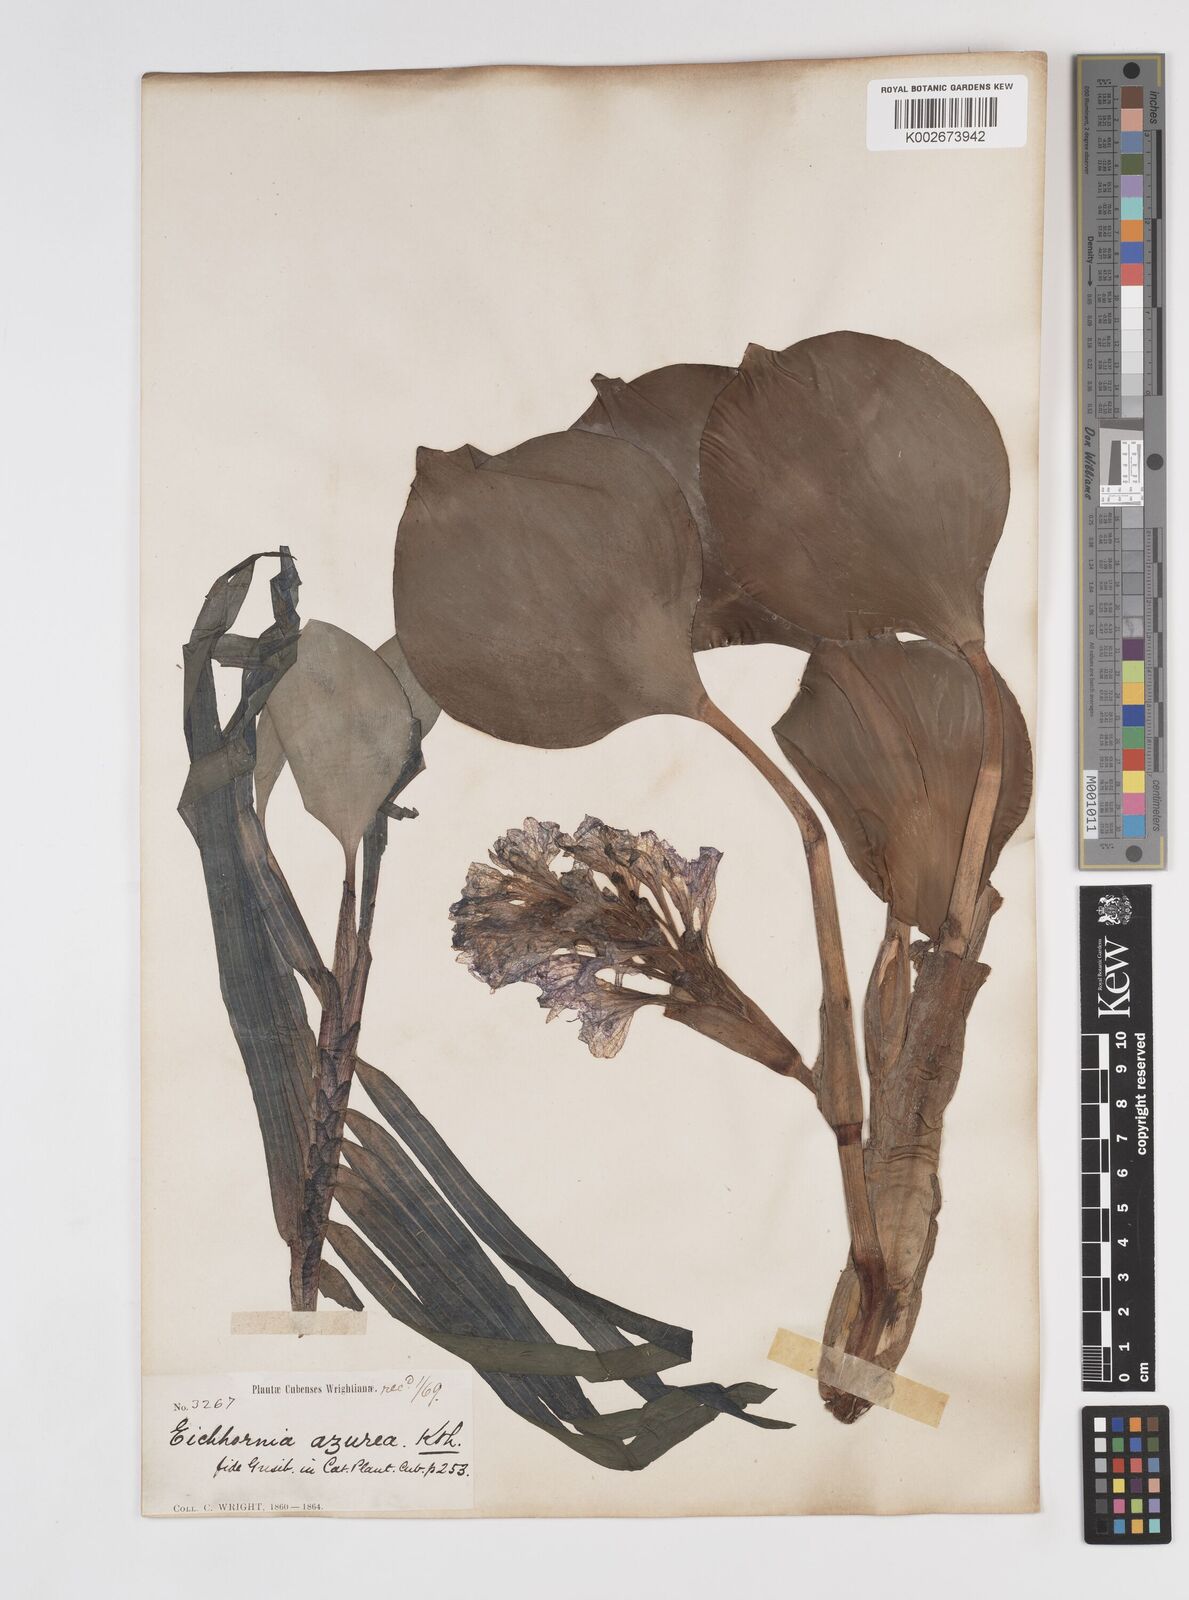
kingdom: Plantae
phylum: Tracheophyta
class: Liliopsida
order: Commelinales
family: Pontederiaceae
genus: Pontederia
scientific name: Pontederia azurea
